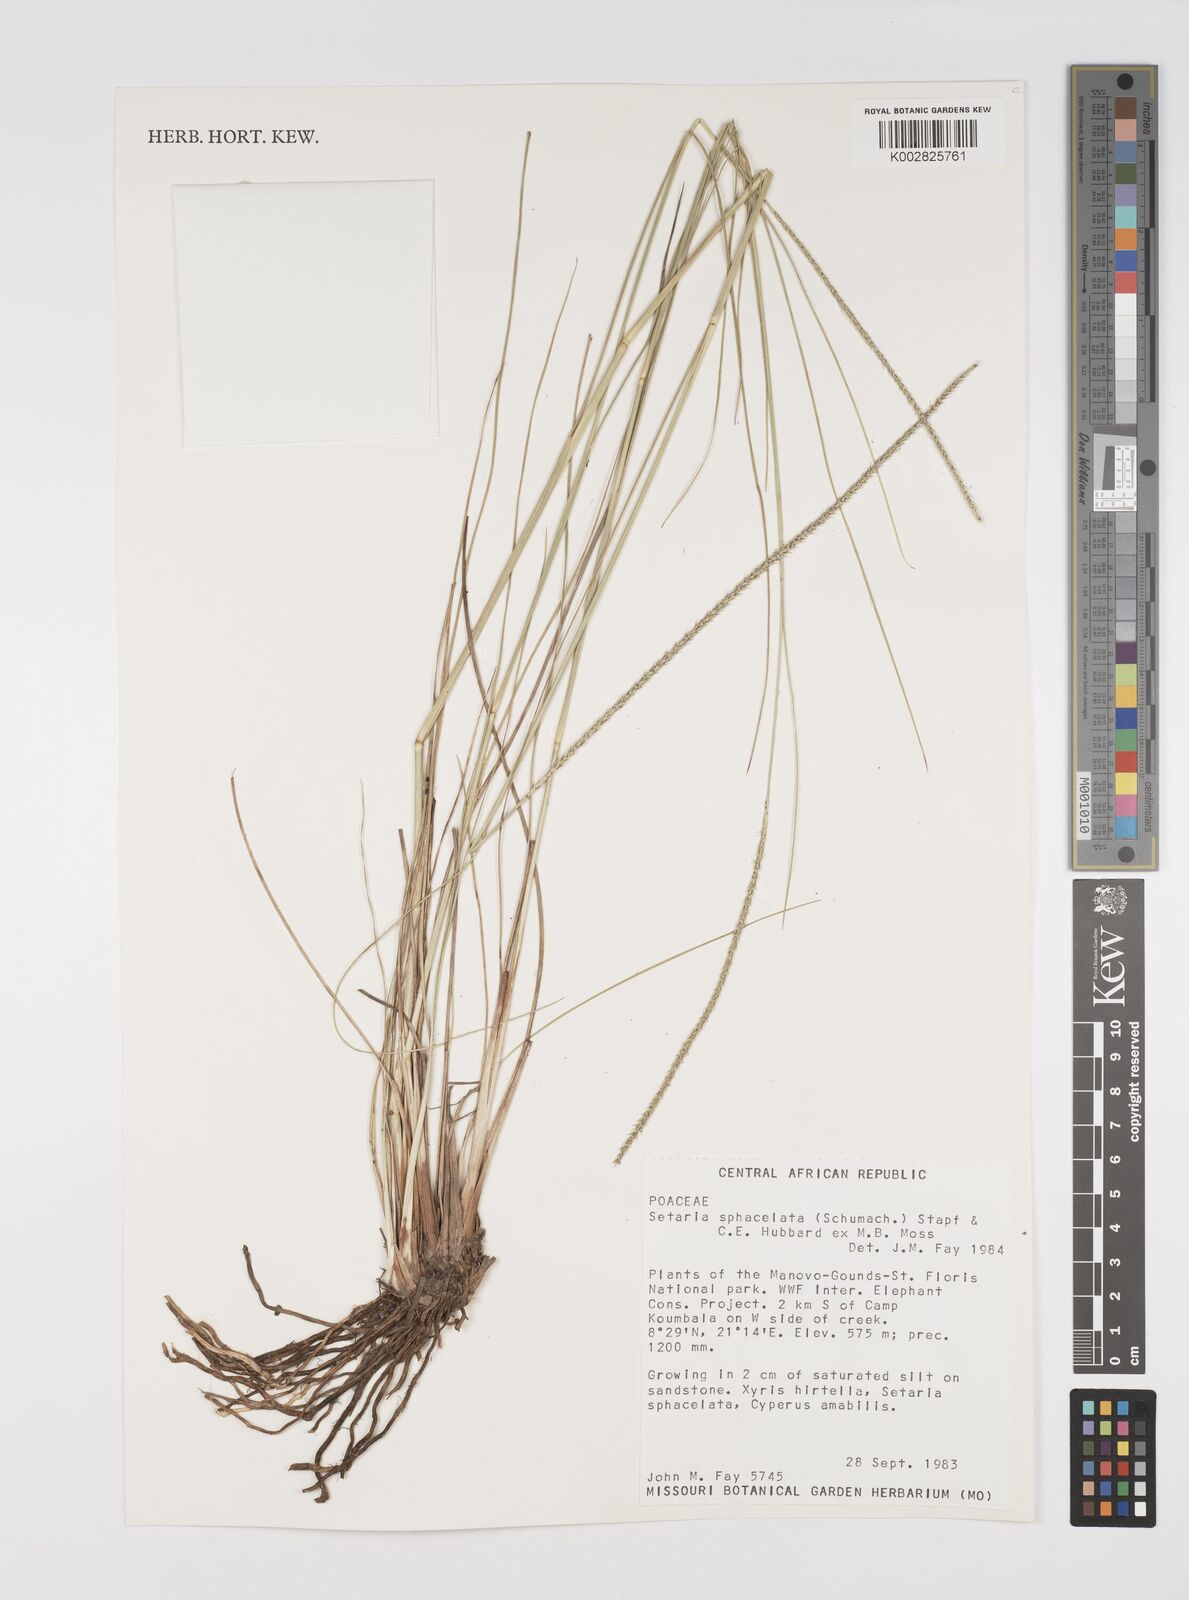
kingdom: Plantae
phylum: Tracheophyta
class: Liliopsida
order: Poales
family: Poaceae
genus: Setaria
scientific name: Setaria sphacelata
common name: African bristlegrass
